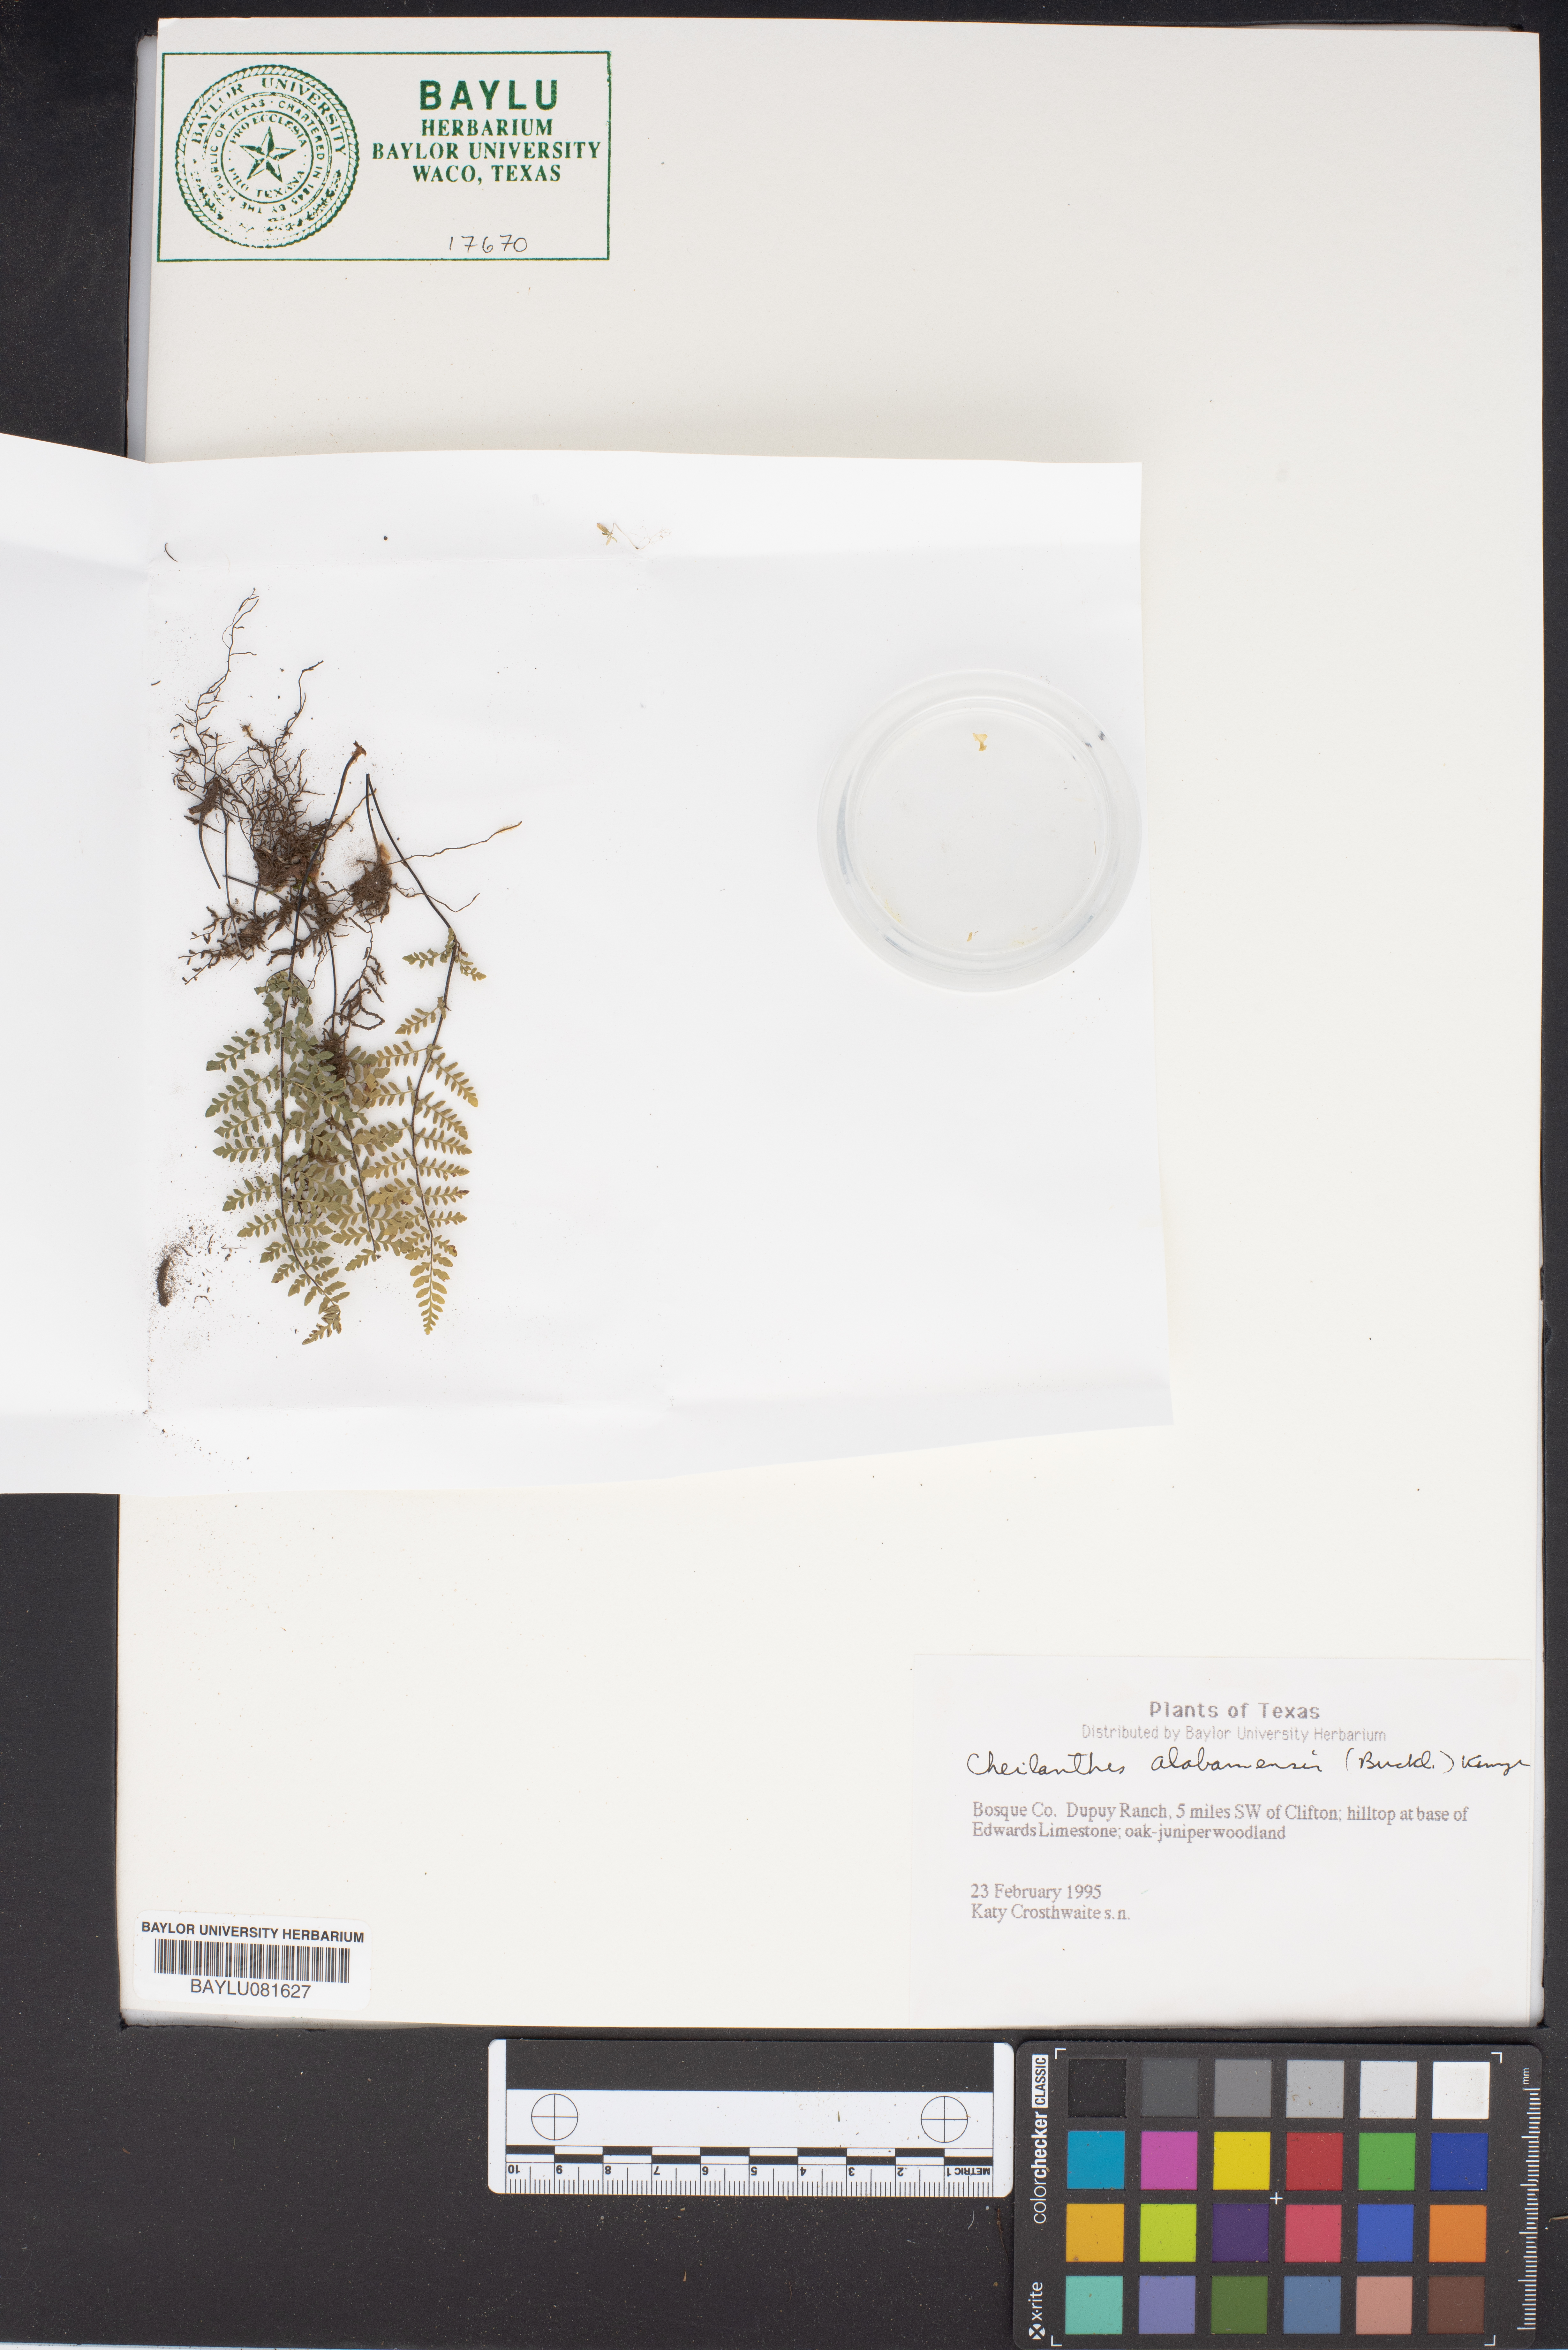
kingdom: Plantae
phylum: Tracheophyta
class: Polypodiopsida
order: Polypodiales
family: Pteridaceae
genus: Myriopteris
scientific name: Myriopteris alabamensis
